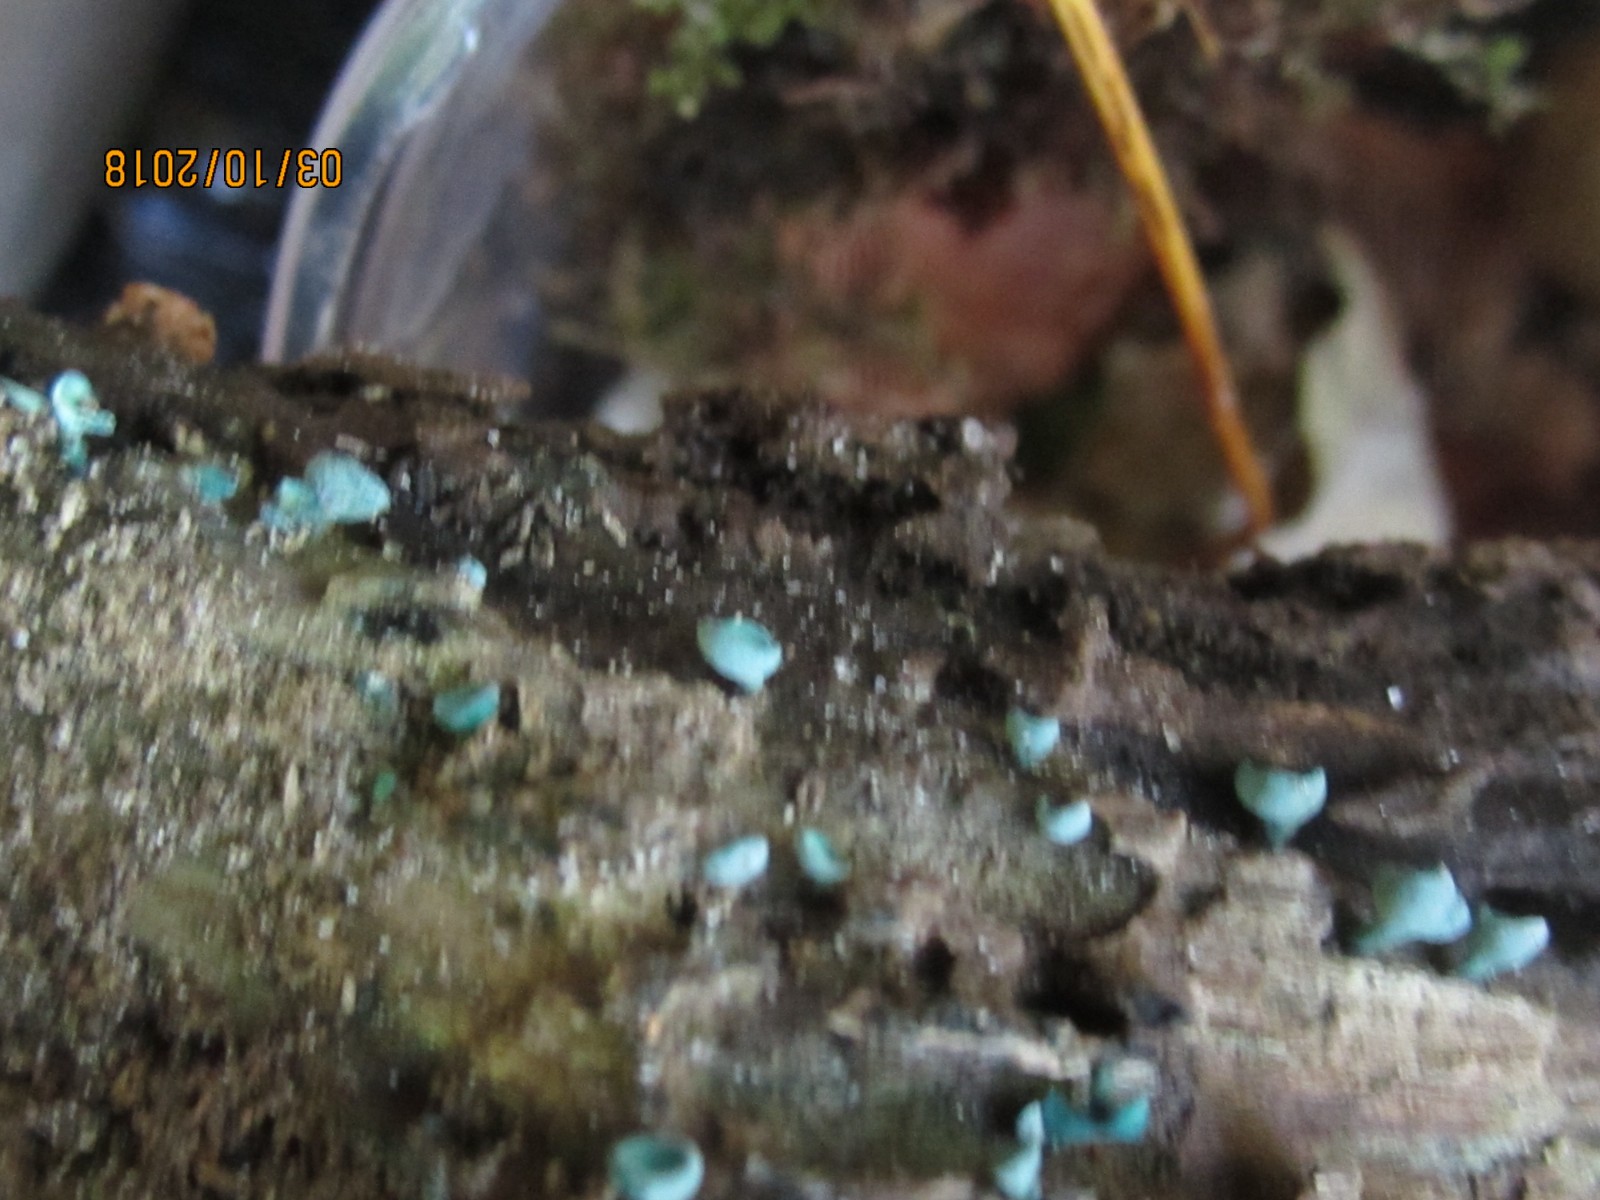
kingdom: Fungi
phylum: Ascomycota
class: Leotiomycetes
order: Helotiales
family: Chlorociboriaceae
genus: Chlorociboria
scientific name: Chlorociboria aeruginascens
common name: almindelig grønskive
